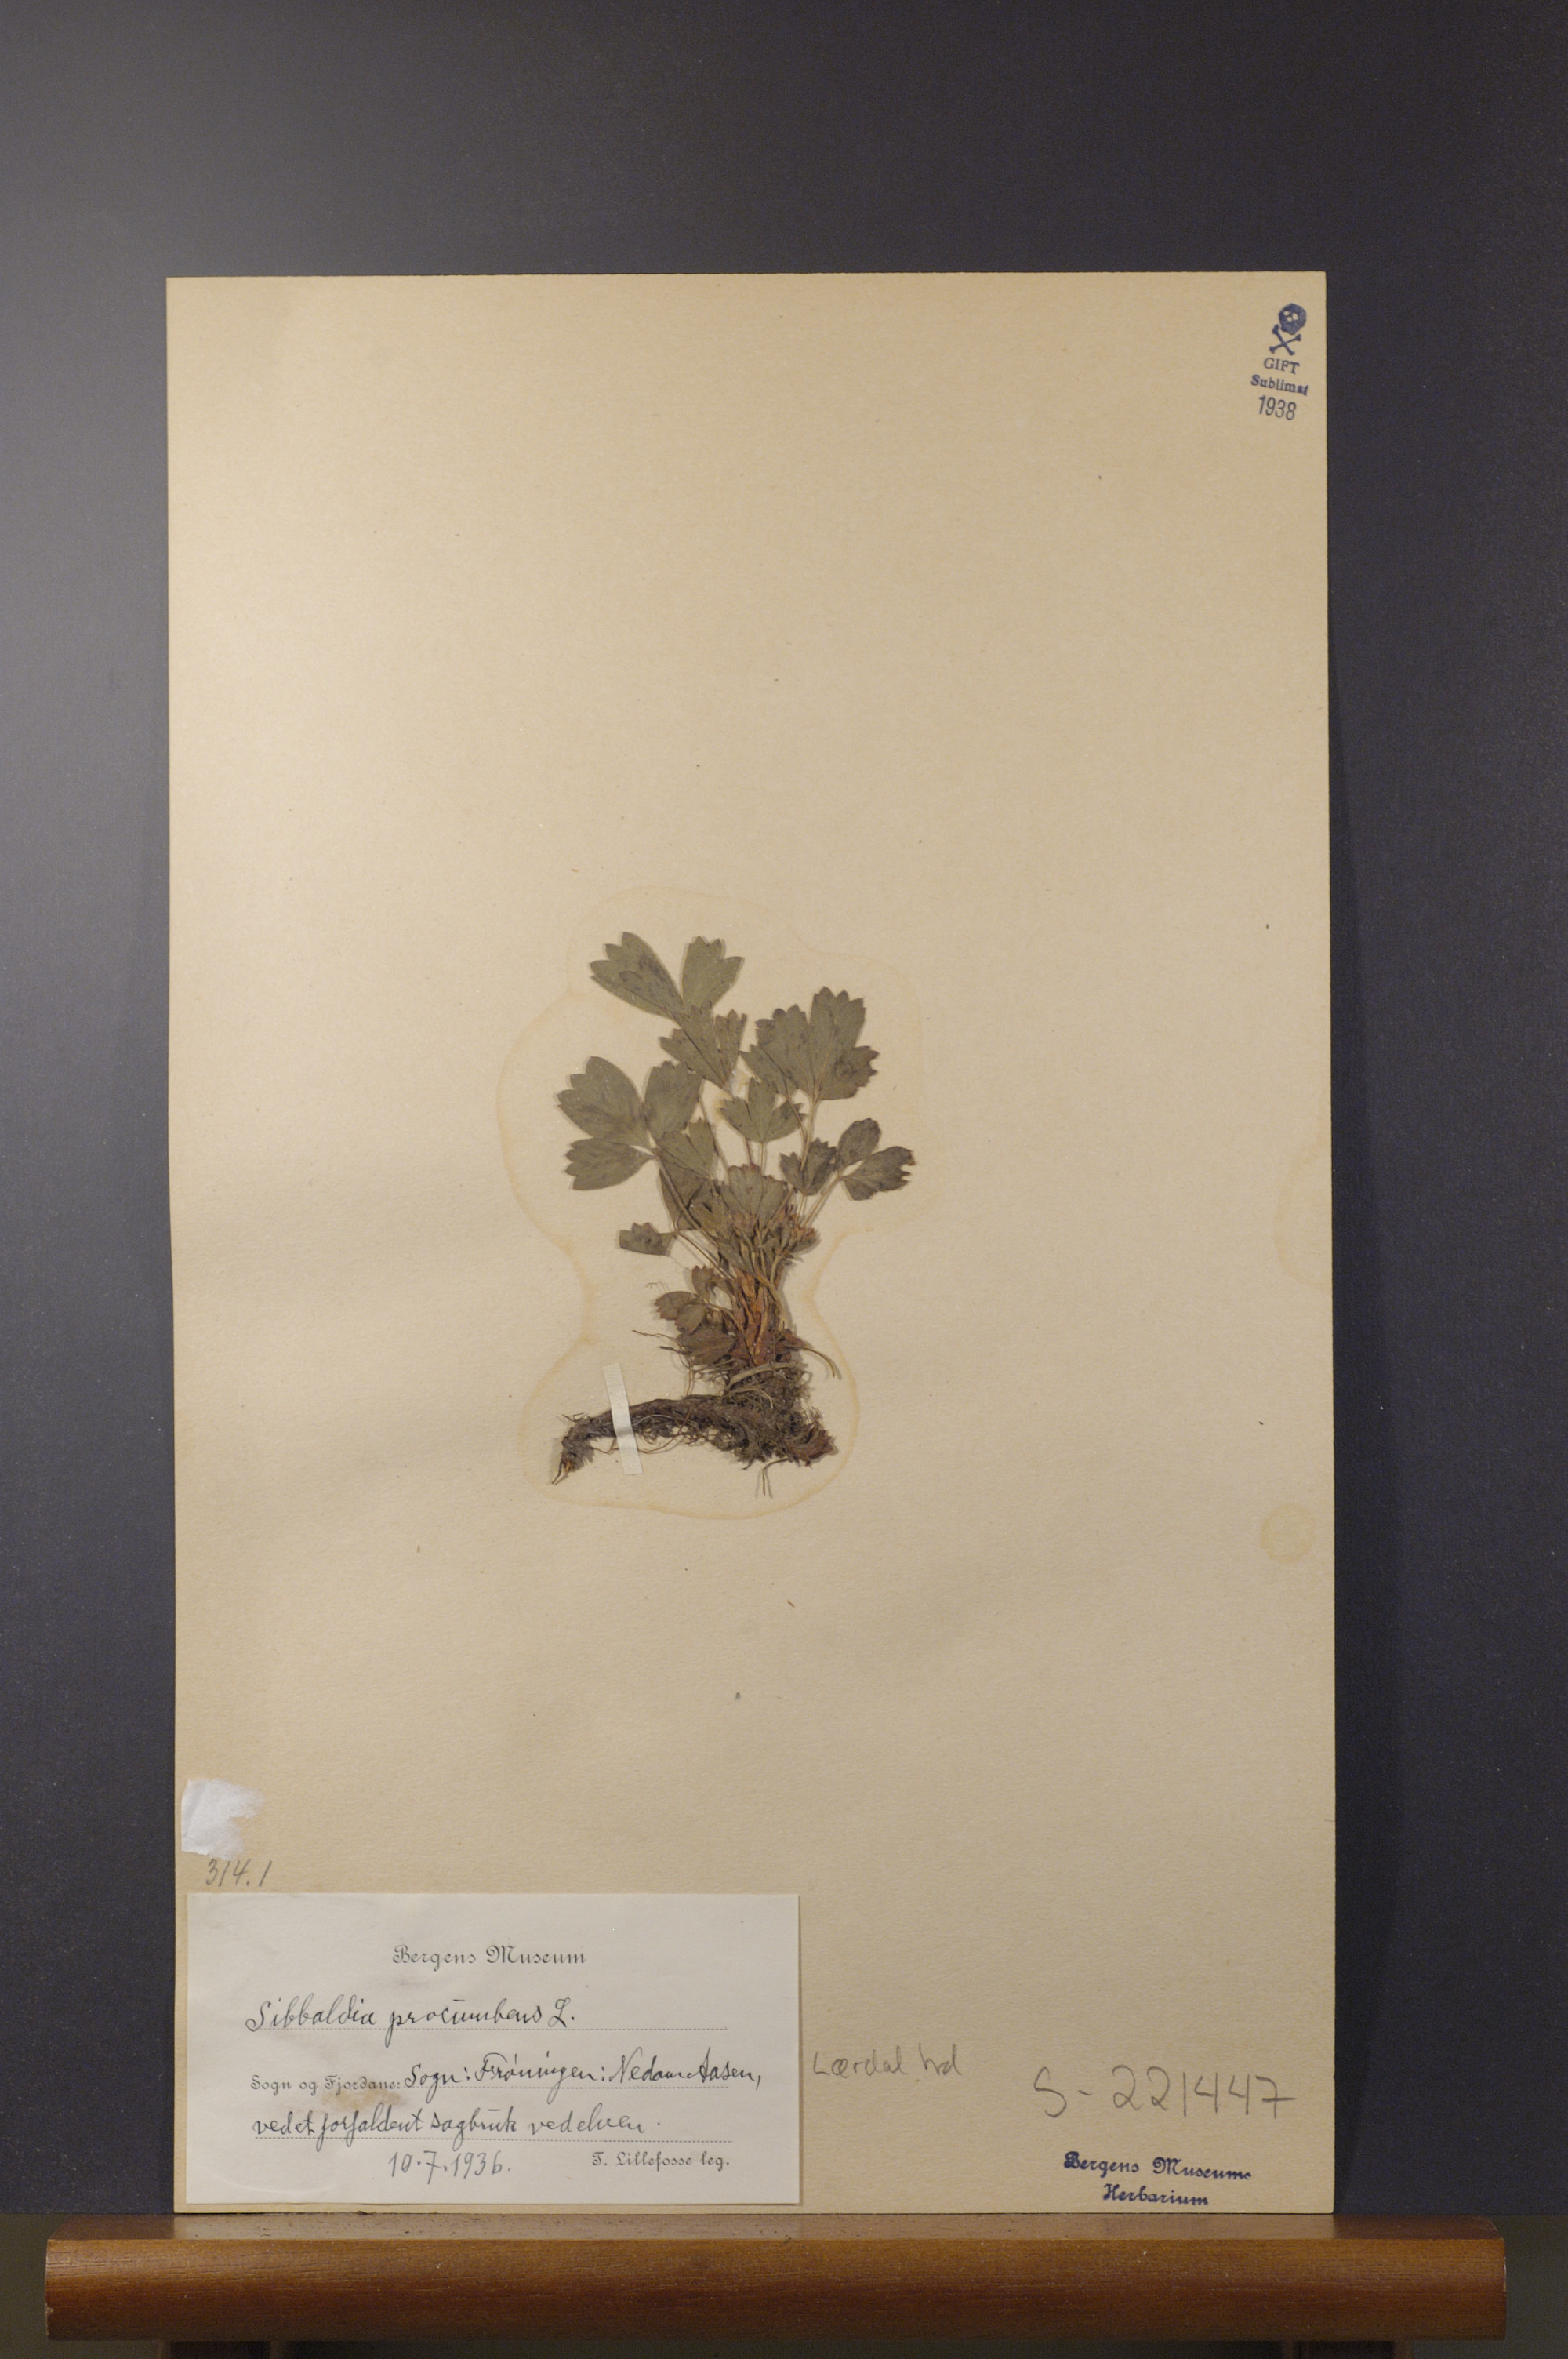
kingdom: Plantae
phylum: Tracheophyta
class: Magnoliopsida
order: Rosales
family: Rosaceae
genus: Sibbaldia
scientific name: Sibbaldia procumbens
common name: Creeping sibbaldia
